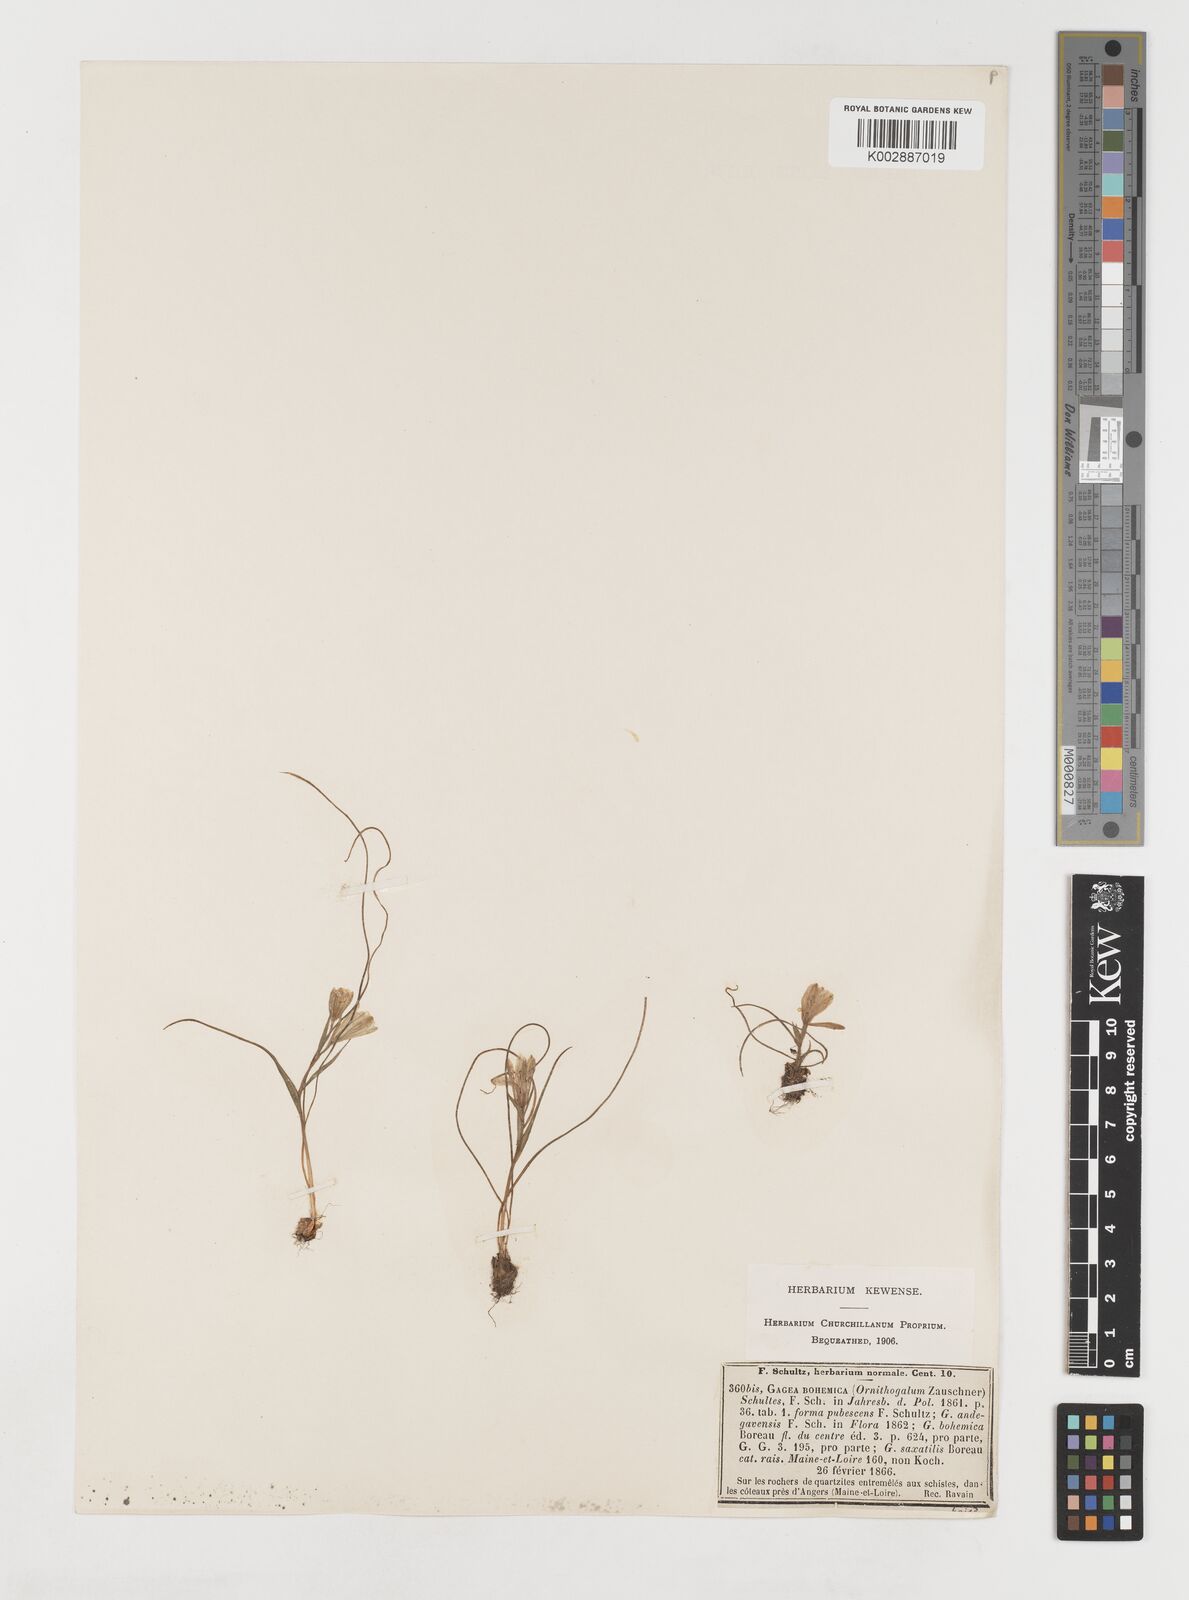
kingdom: Plantae
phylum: Tracheophyta
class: Liliopsida
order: Liliales
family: Liliaceae
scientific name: Liliaceae
